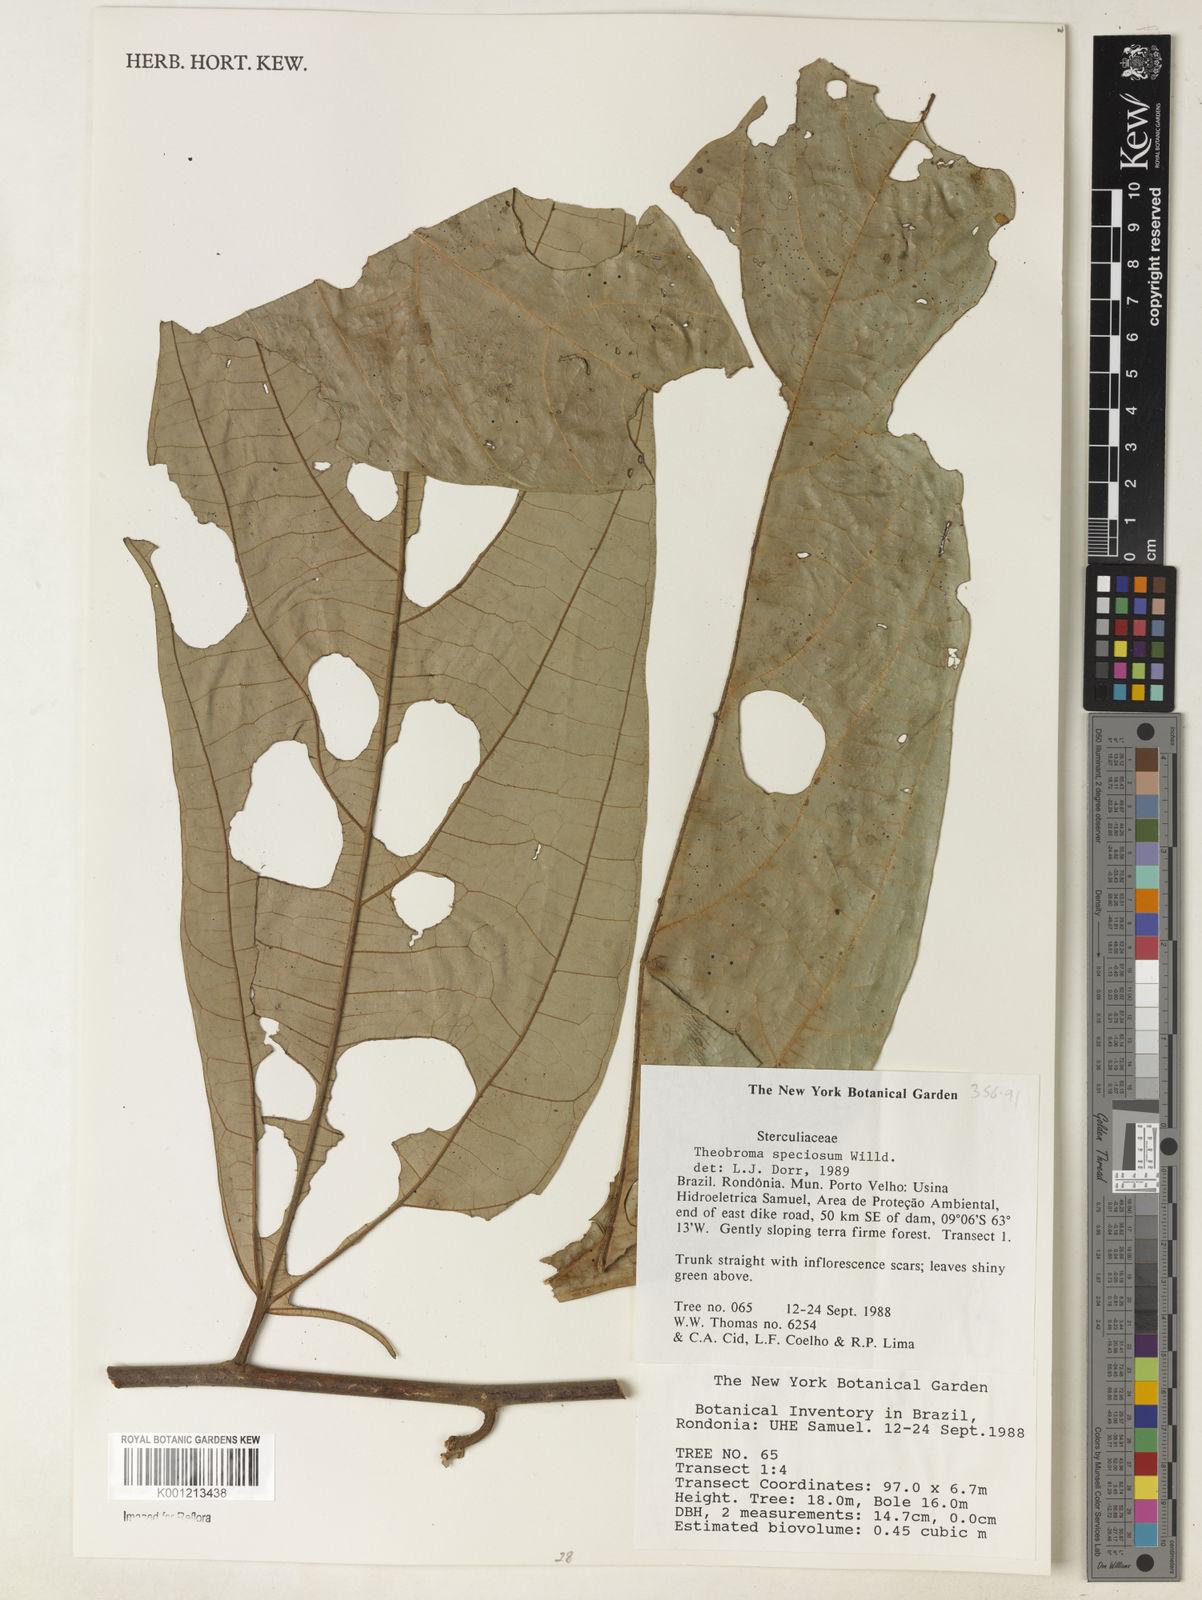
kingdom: Plantae
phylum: Tracheophyta
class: Magnoliopsida
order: Malvales
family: Malvaceae
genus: Theobroma
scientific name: Theobroma speciosum
